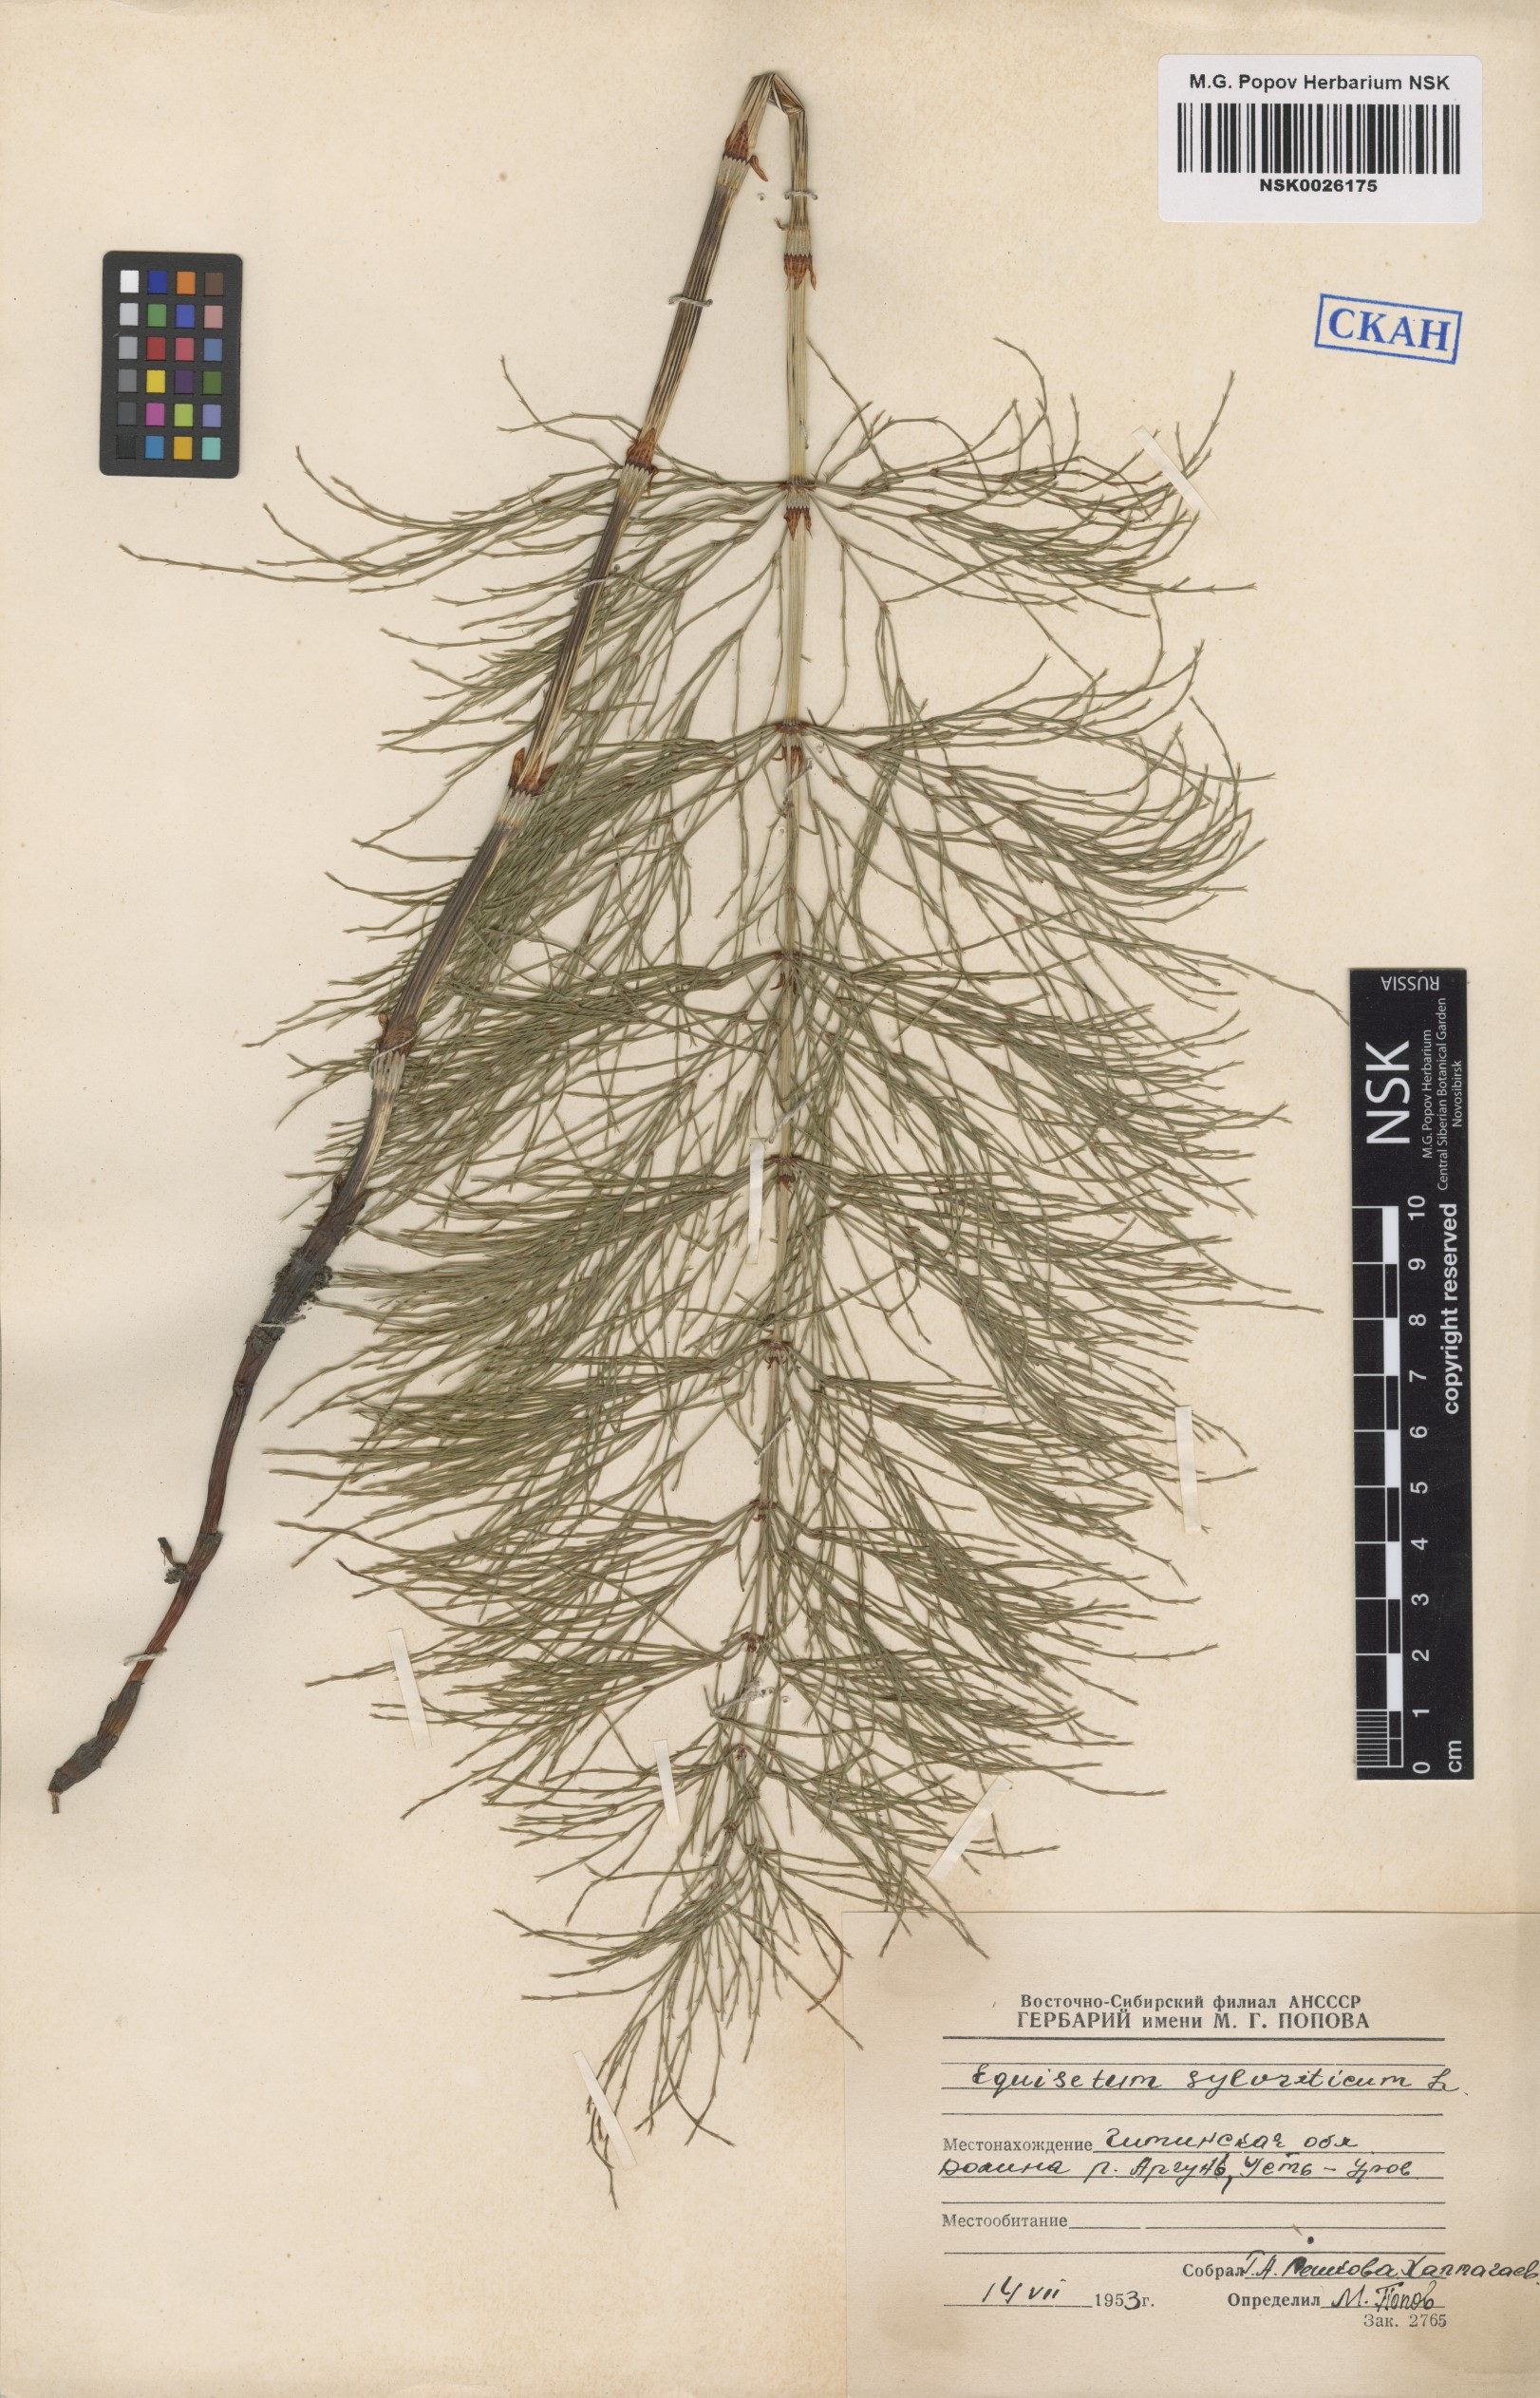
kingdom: Plantae
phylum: Tracheophyta
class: Polypodiopsida
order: Equisetales
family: Equisetaceae
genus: Equisetum
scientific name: Equisetum sylvaticum
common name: Wood horsetail
